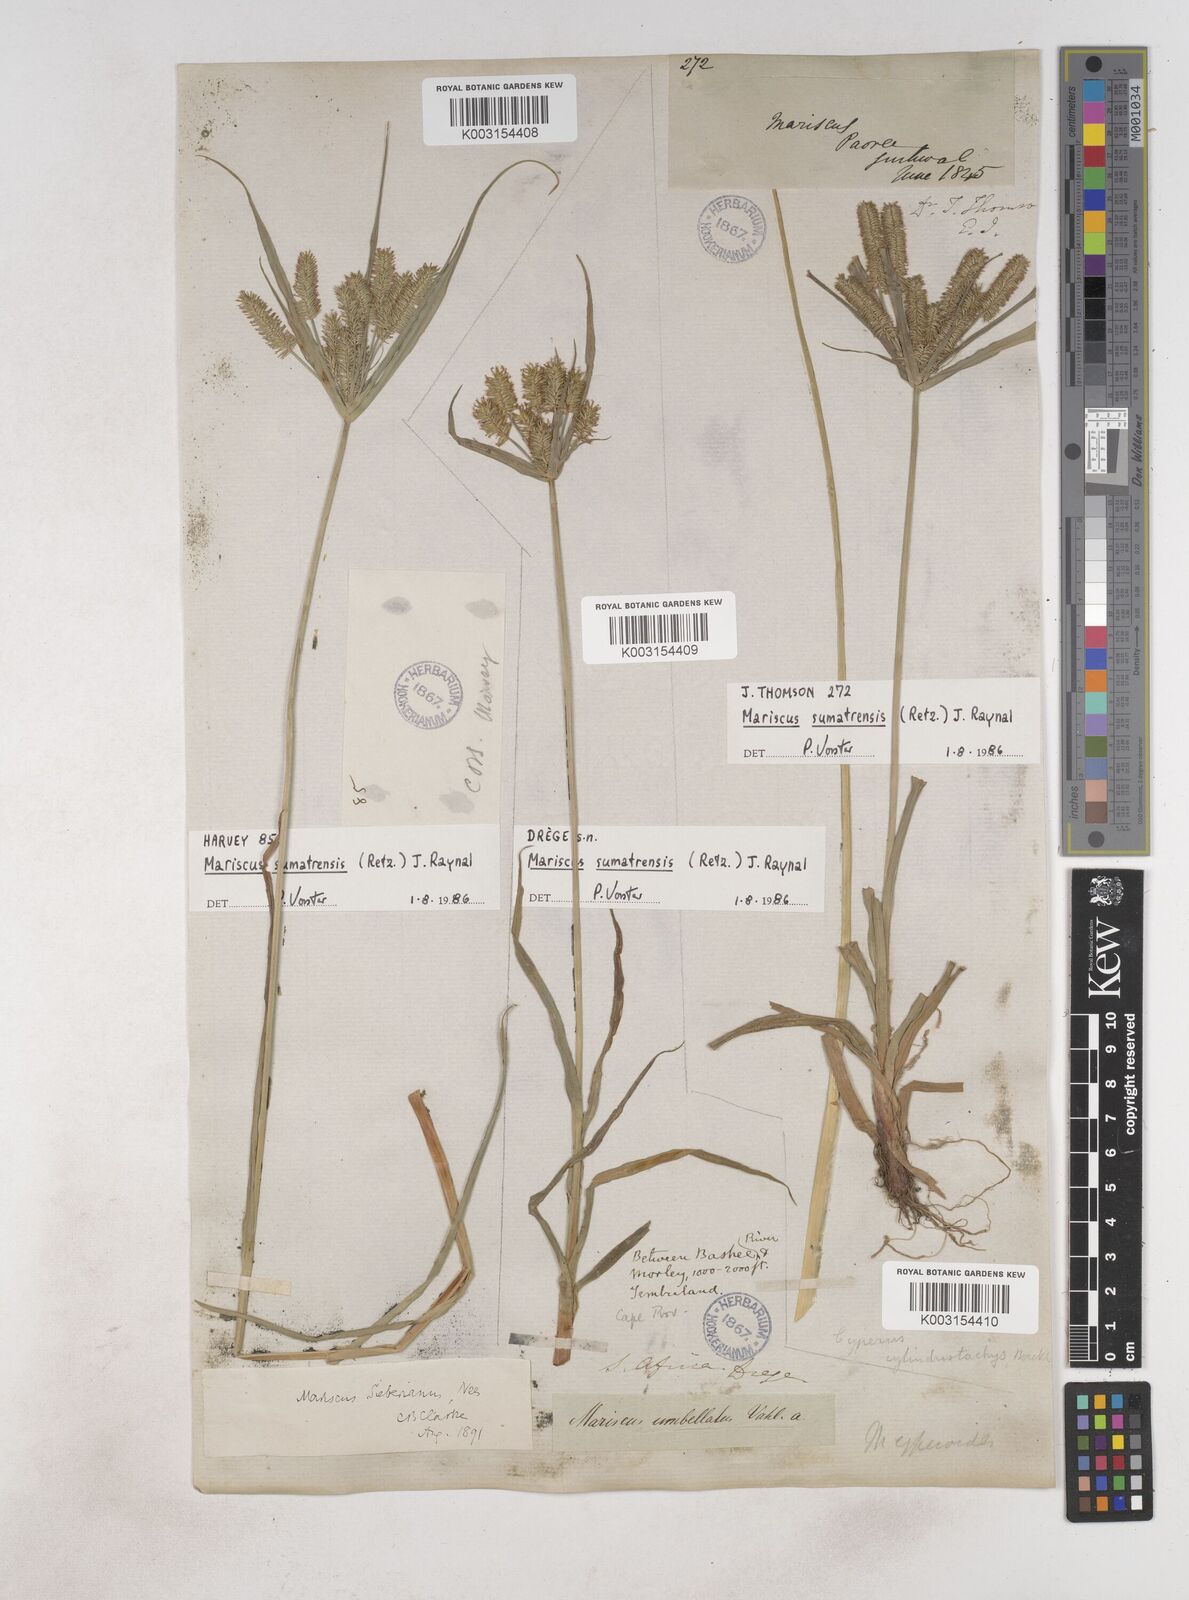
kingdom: Plantae
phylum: Tracheophyta
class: Liliopsida
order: Poales
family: Cyperaceae
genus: Cyperus
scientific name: Cyperus cyperoides
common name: Pacific island flat sedge
